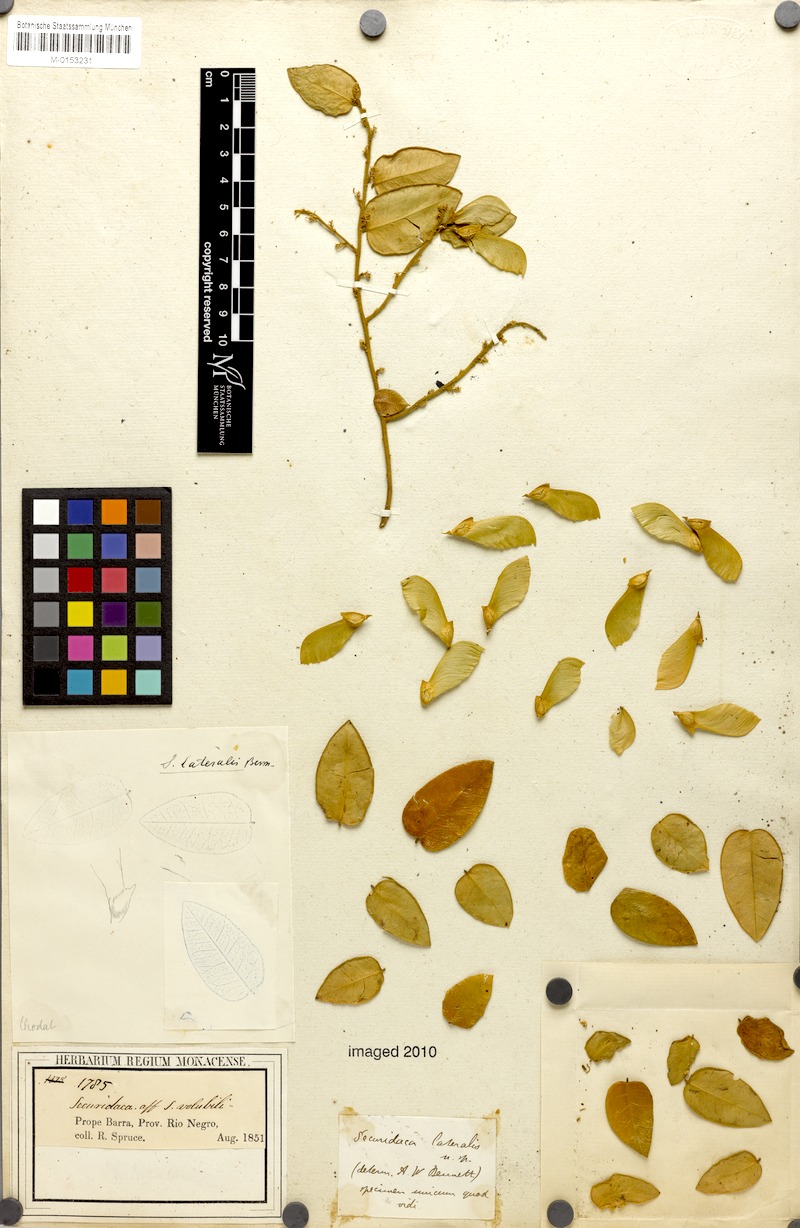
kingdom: Plantae
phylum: Tracheophyta
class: Magnoliopsida
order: Fabales
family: Polygalaceae
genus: Securidaca
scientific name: Securidaca lateralis
